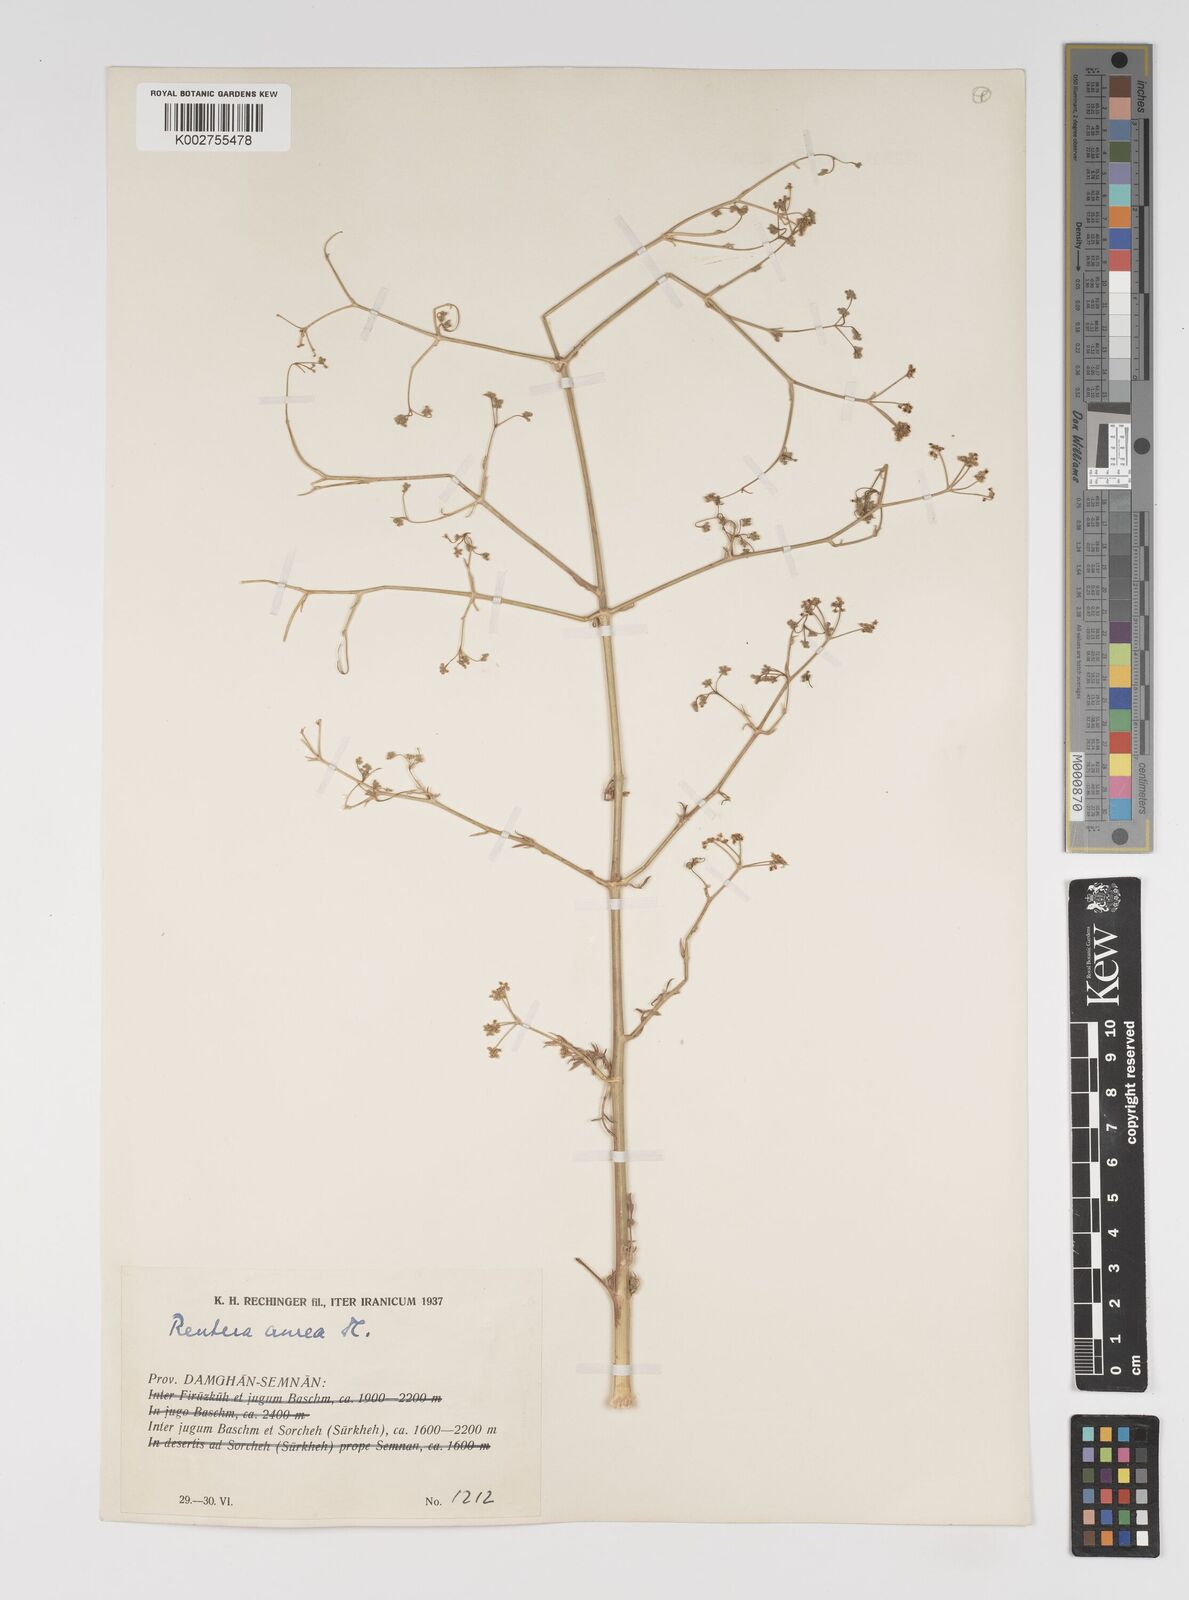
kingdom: Plantae
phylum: Tracheophyta
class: Magnoliopsida
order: Apiales
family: Apiaceae
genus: Pimpinella
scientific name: Pimpinella aurea
